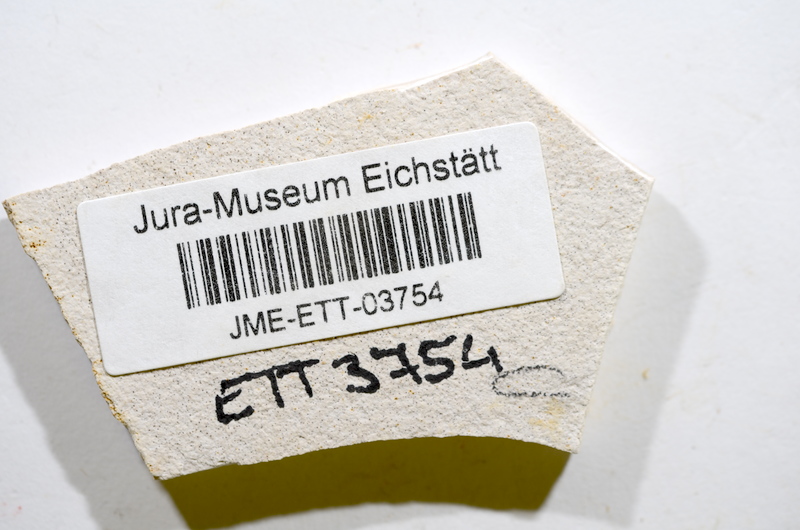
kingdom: Animalia
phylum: Chordata
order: Salmoniformes
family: Orthogonikleithridae
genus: Orthogonikleithrus
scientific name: Orthogonikleithrus hoelli
